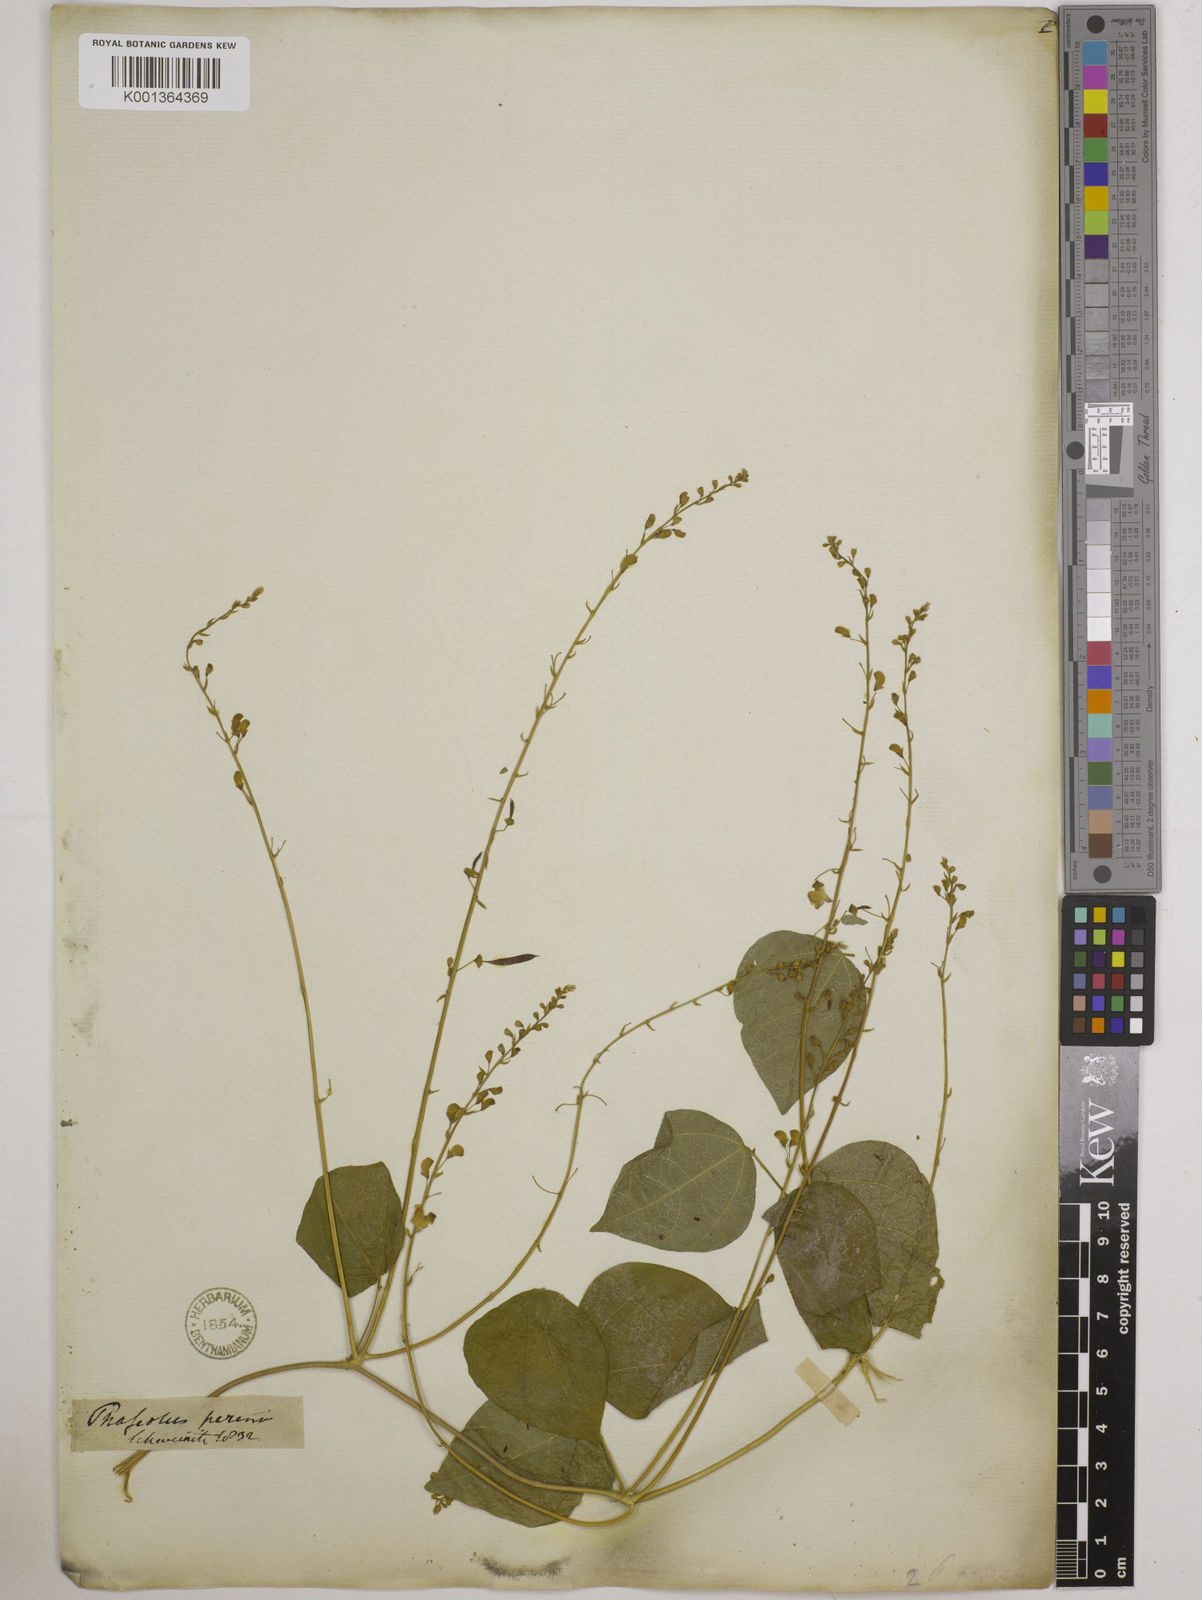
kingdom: Plantae
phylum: Tracheophyta
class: Magnoliopsida
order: Fabales
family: Fabaceae
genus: Phaseolus
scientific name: Phaseolus
